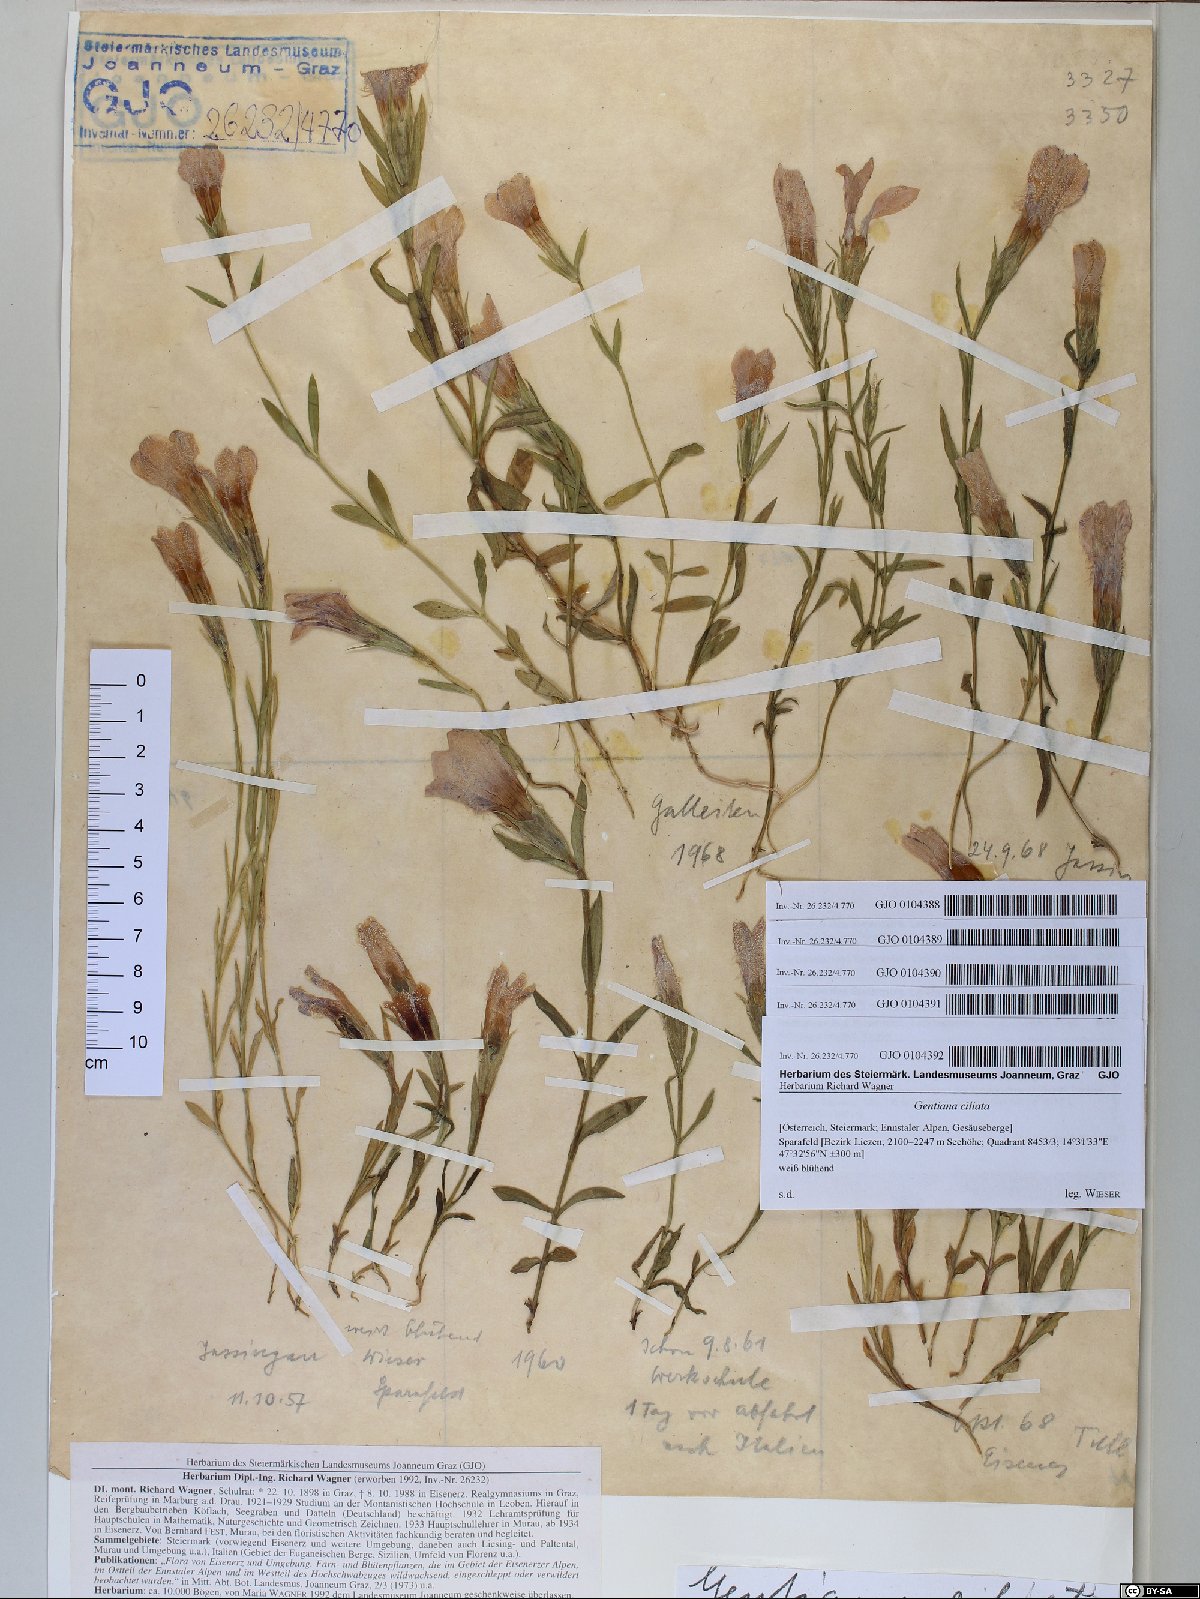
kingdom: Plantae
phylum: Tracheophyta
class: Magnoliopsida
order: Gentianales
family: Gentianaceae
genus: Gentianopsis
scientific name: Gentianopsis ciliata
